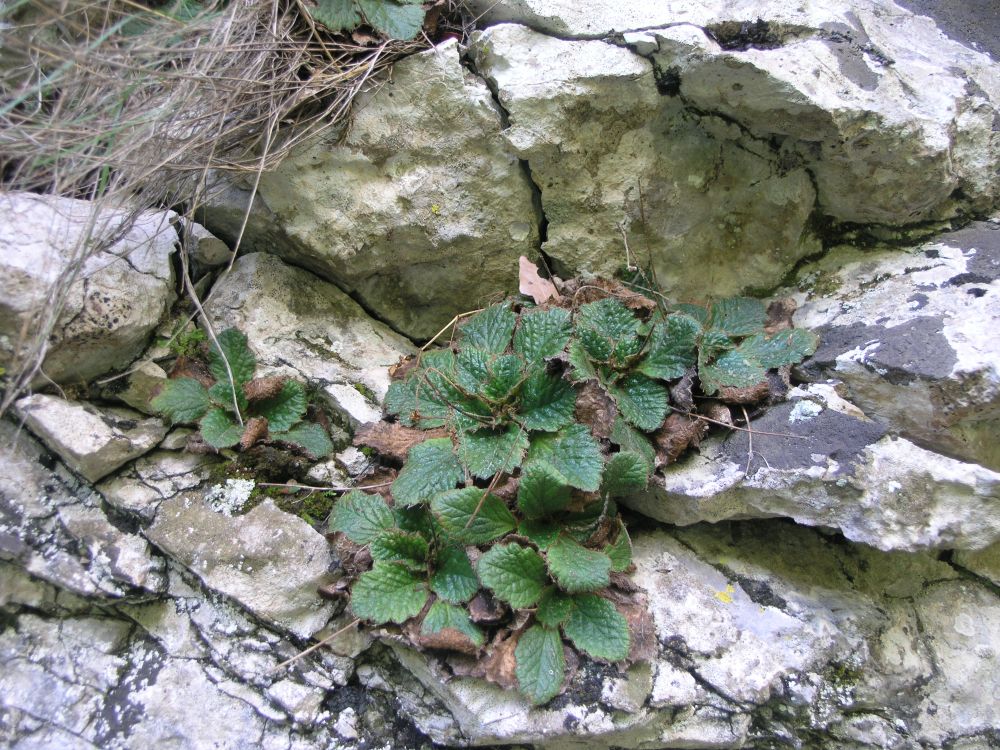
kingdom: Plantae
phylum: Tracheophyta
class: Magnoliopsida
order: Lamiales
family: Gesneriaceae
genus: Ramonda
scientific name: Ramonda serbica
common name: Serbian phoenix flower
